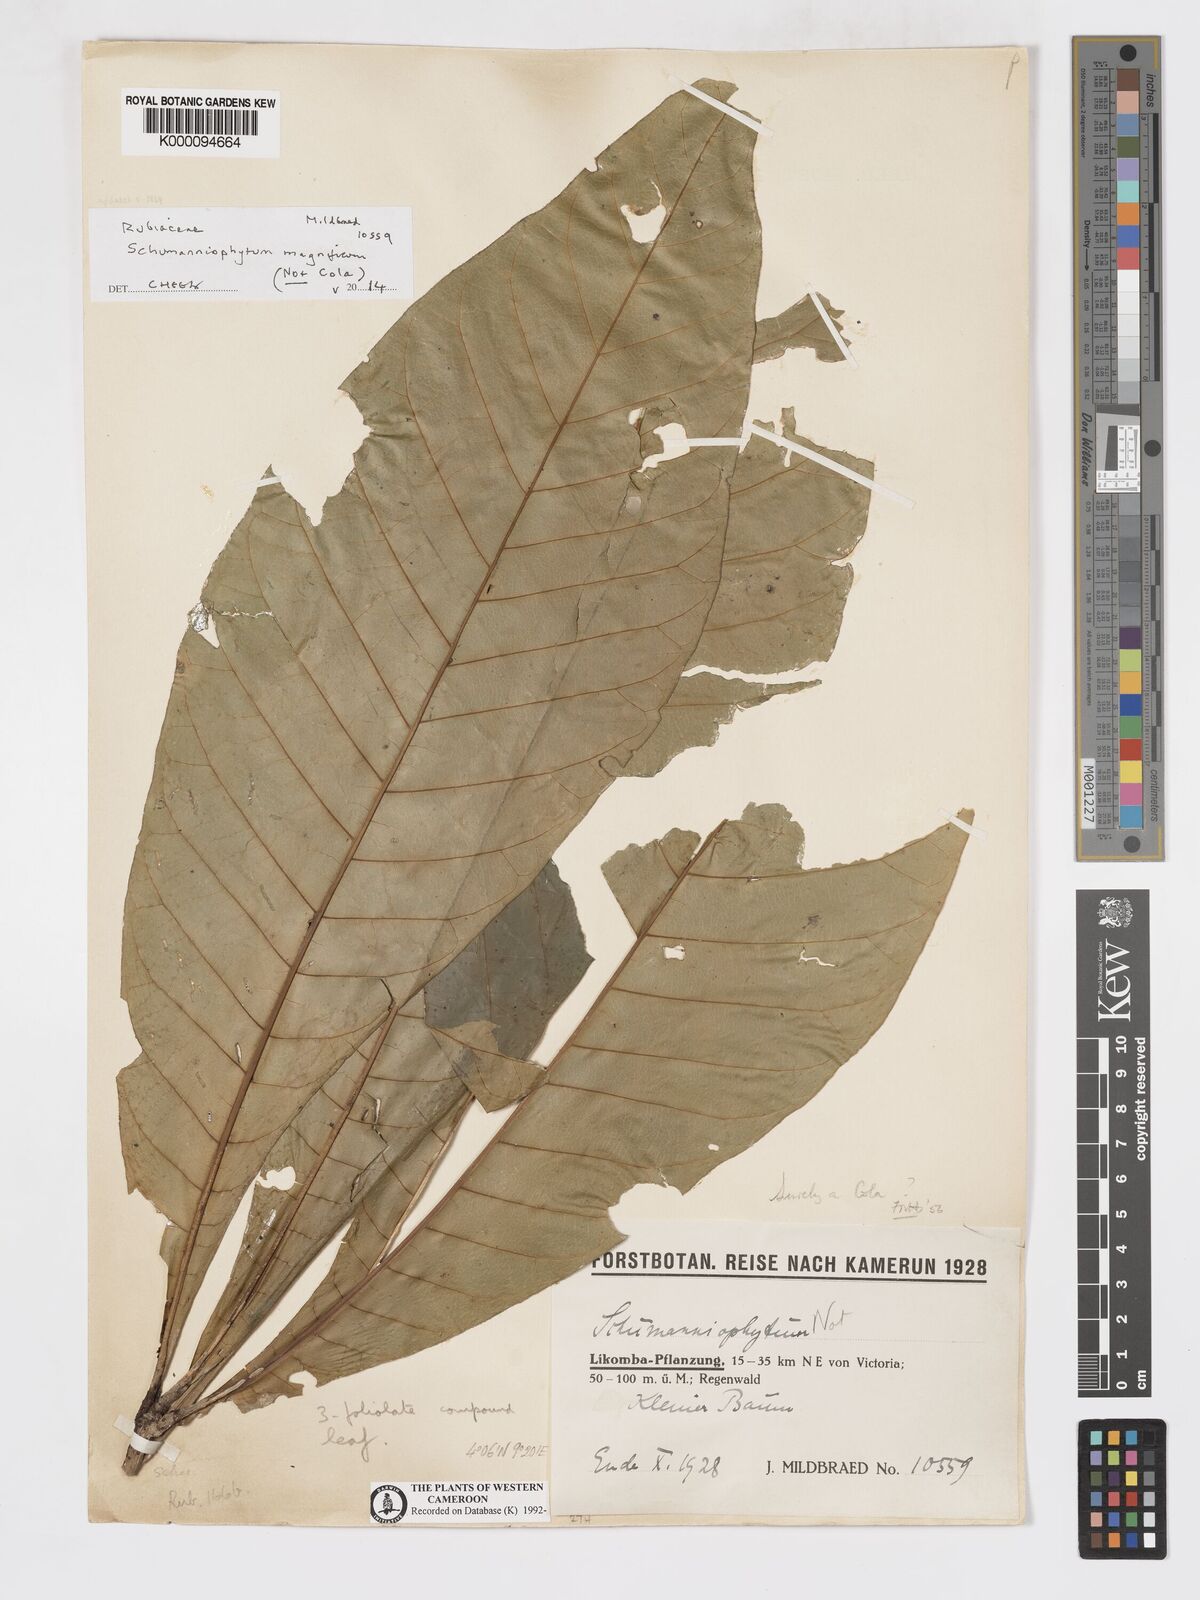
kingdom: Plantae
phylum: Tracheophyta
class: Magnoliopsida
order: Malvales
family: Malvaceae
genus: Cola
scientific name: Cola
